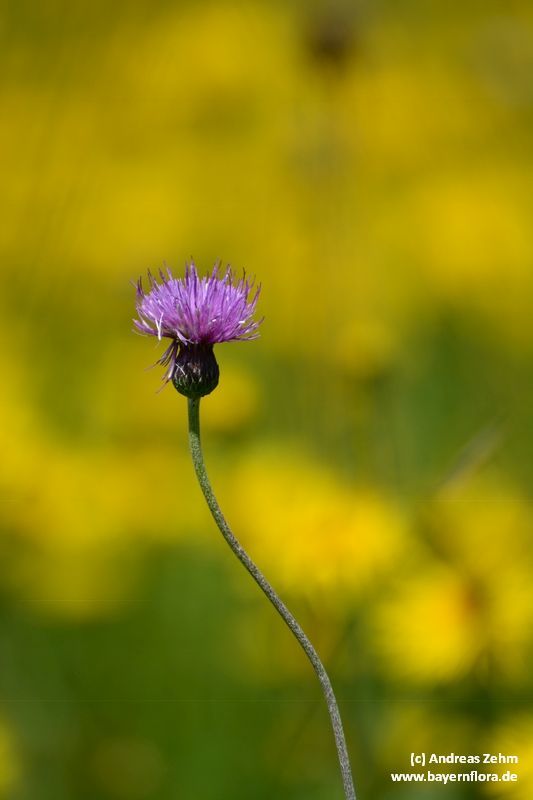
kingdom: Plantae
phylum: Tracheophyta
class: Magnoliopsida
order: Asterales
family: Asteraceae
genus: Cirsium
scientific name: Cirsium tuberosum
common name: Tuberous thistle
